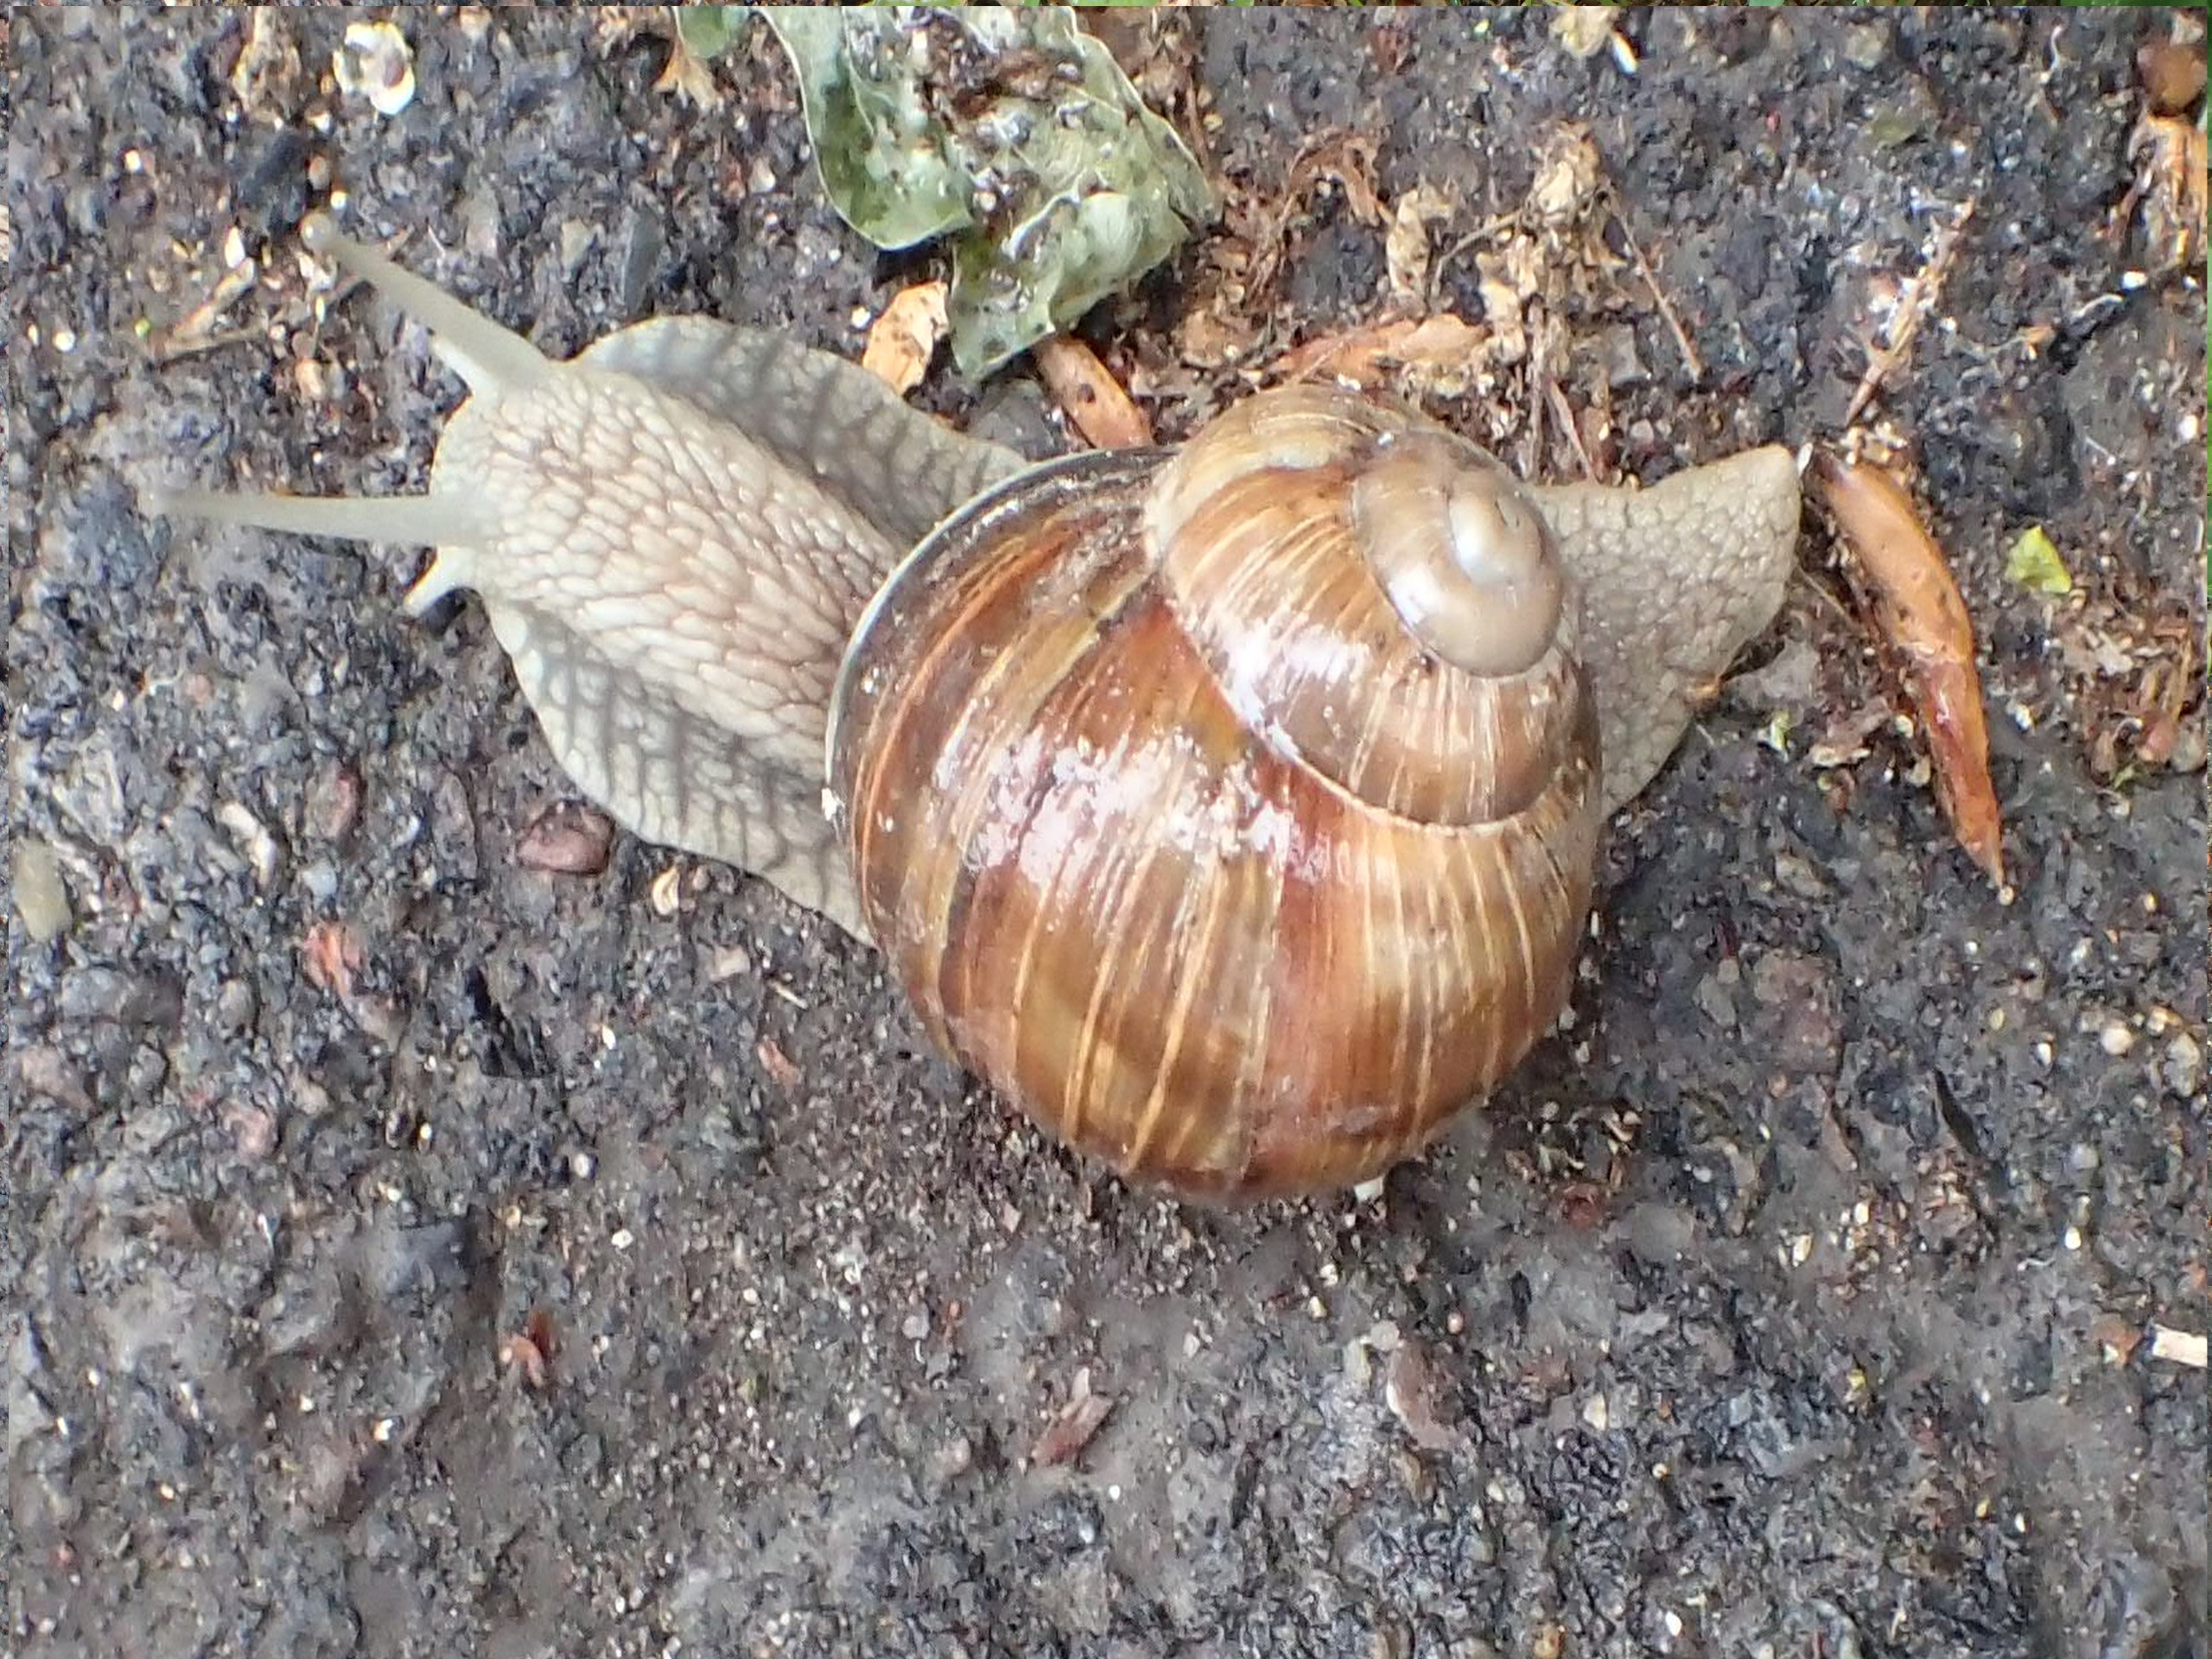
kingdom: Animalia
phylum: Mollusca
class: Gastropoda
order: Stylommatophora
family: Helicidae
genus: Helix
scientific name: Helix pomatia
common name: Vinbjergsnegl
